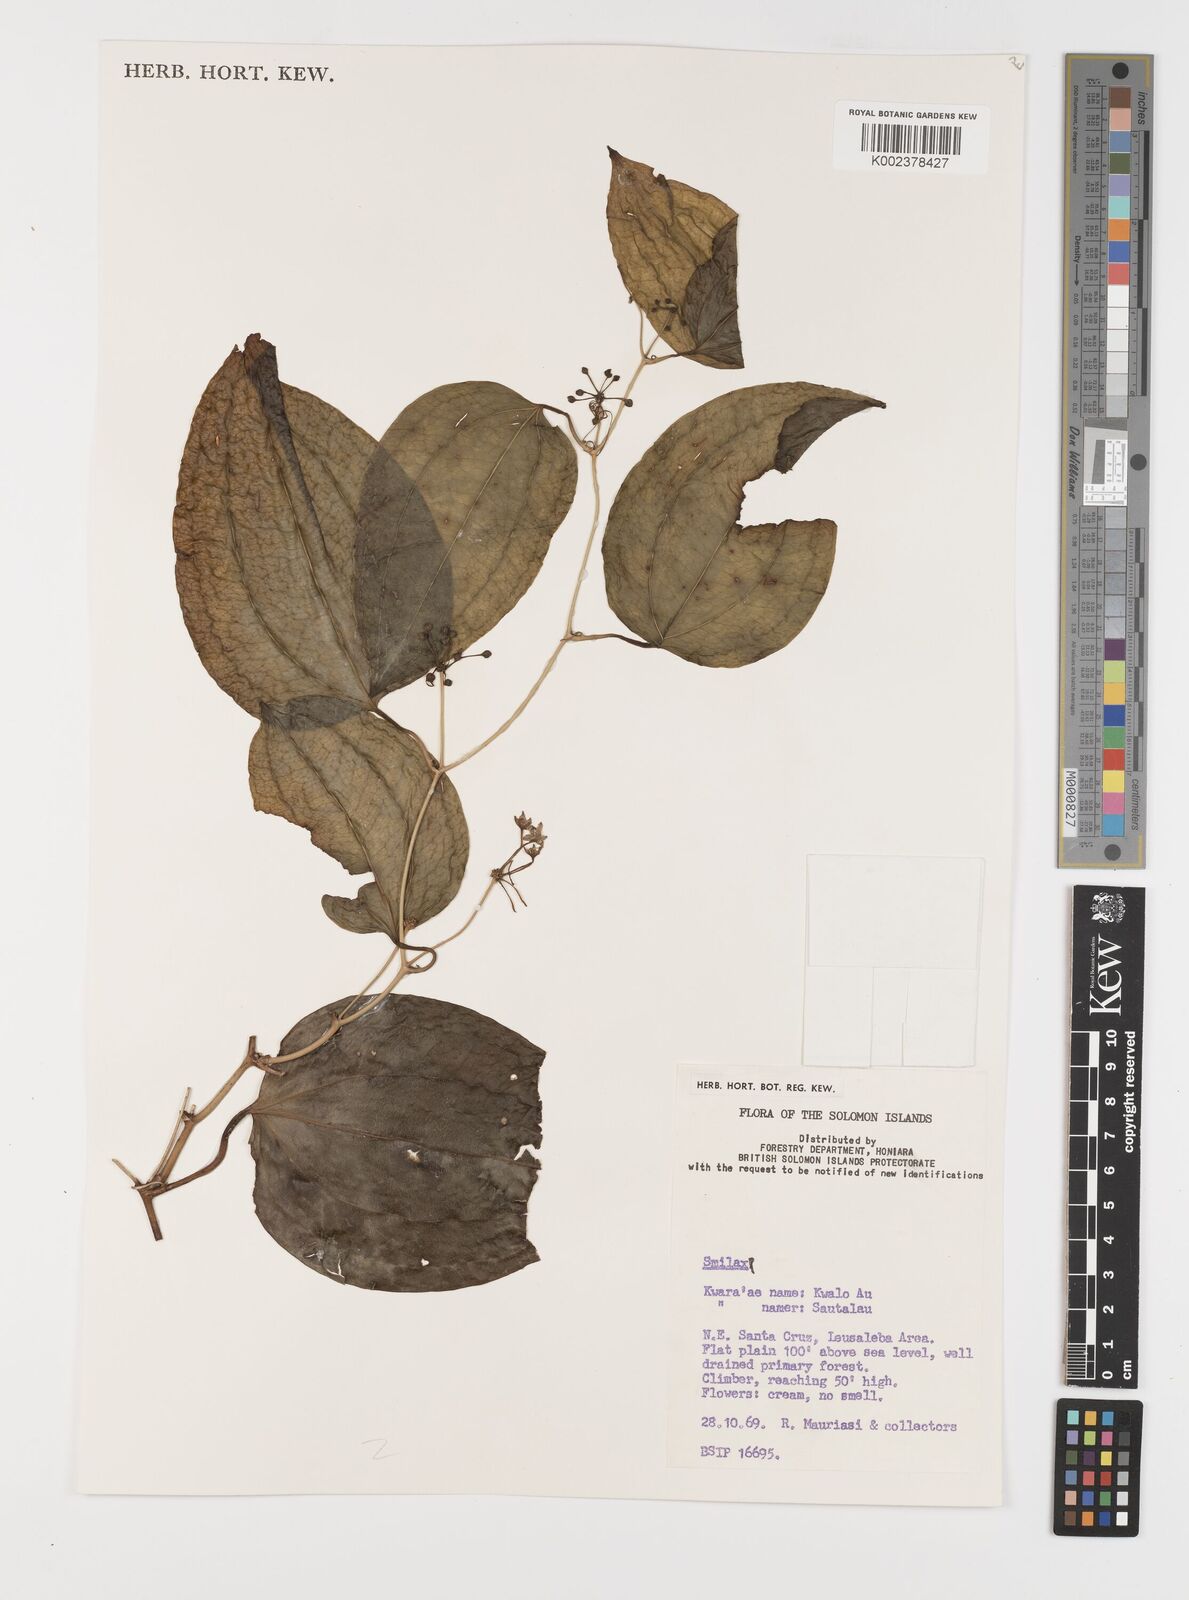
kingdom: Plantae
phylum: Tracheophyta
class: Liliopsida
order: Liliales
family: Smilacaceae
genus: Smilax
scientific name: Smilax
